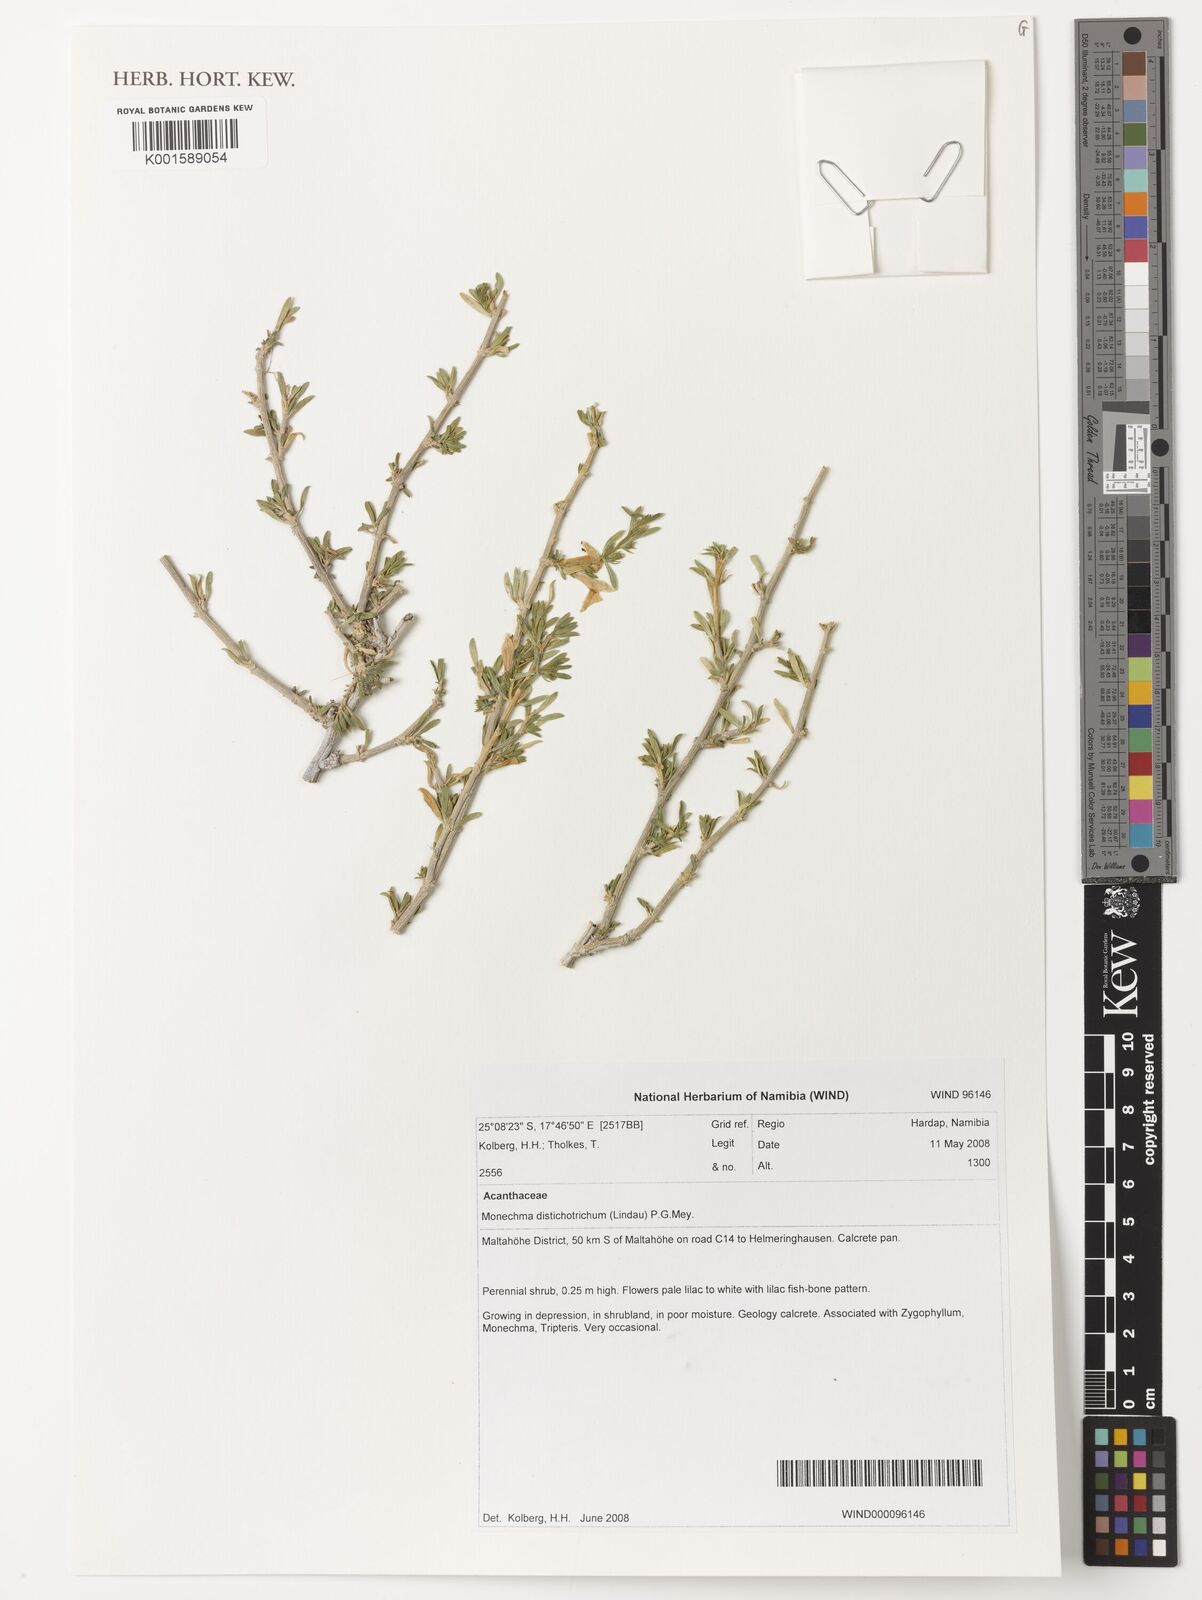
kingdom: Plantae
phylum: Tracheophyta
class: Magnoliopsida
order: Lamiales
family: Acanthaceae
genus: Monechma
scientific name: Monechma distichotrichum
